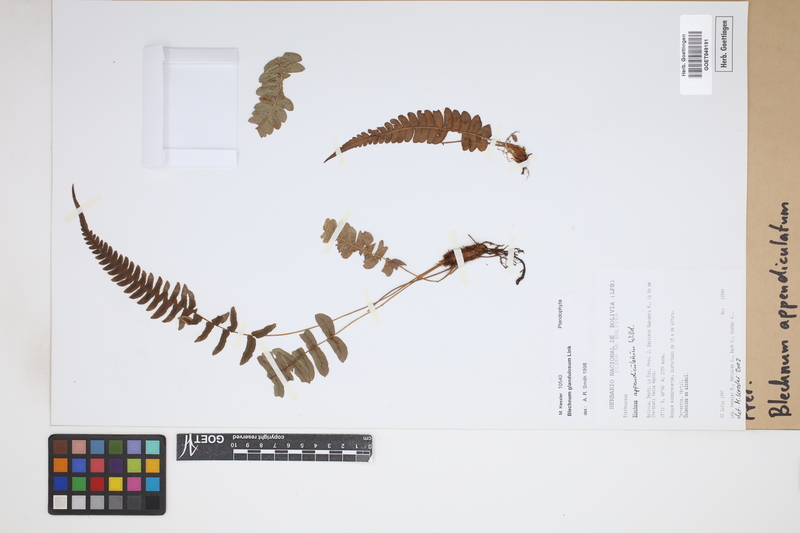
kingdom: Plantae
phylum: Tracheophyta
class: Polypodiopsida
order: Polypodiales
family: Blechnaceae
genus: Blechnum
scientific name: Blechnum appendiculatum
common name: Palm fern
